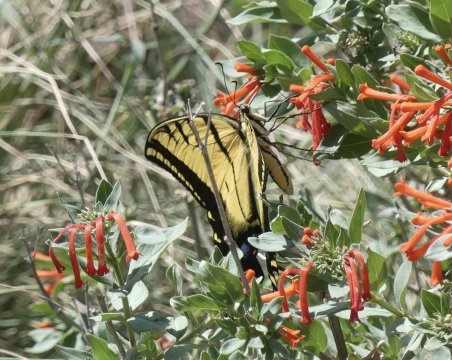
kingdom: Animalia
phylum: Arthropoda
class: Insecta
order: Lepidoptera
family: Papilionidae
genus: Papilio
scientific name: Papilio multicaudata
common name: Two-tailed Swallowtail
